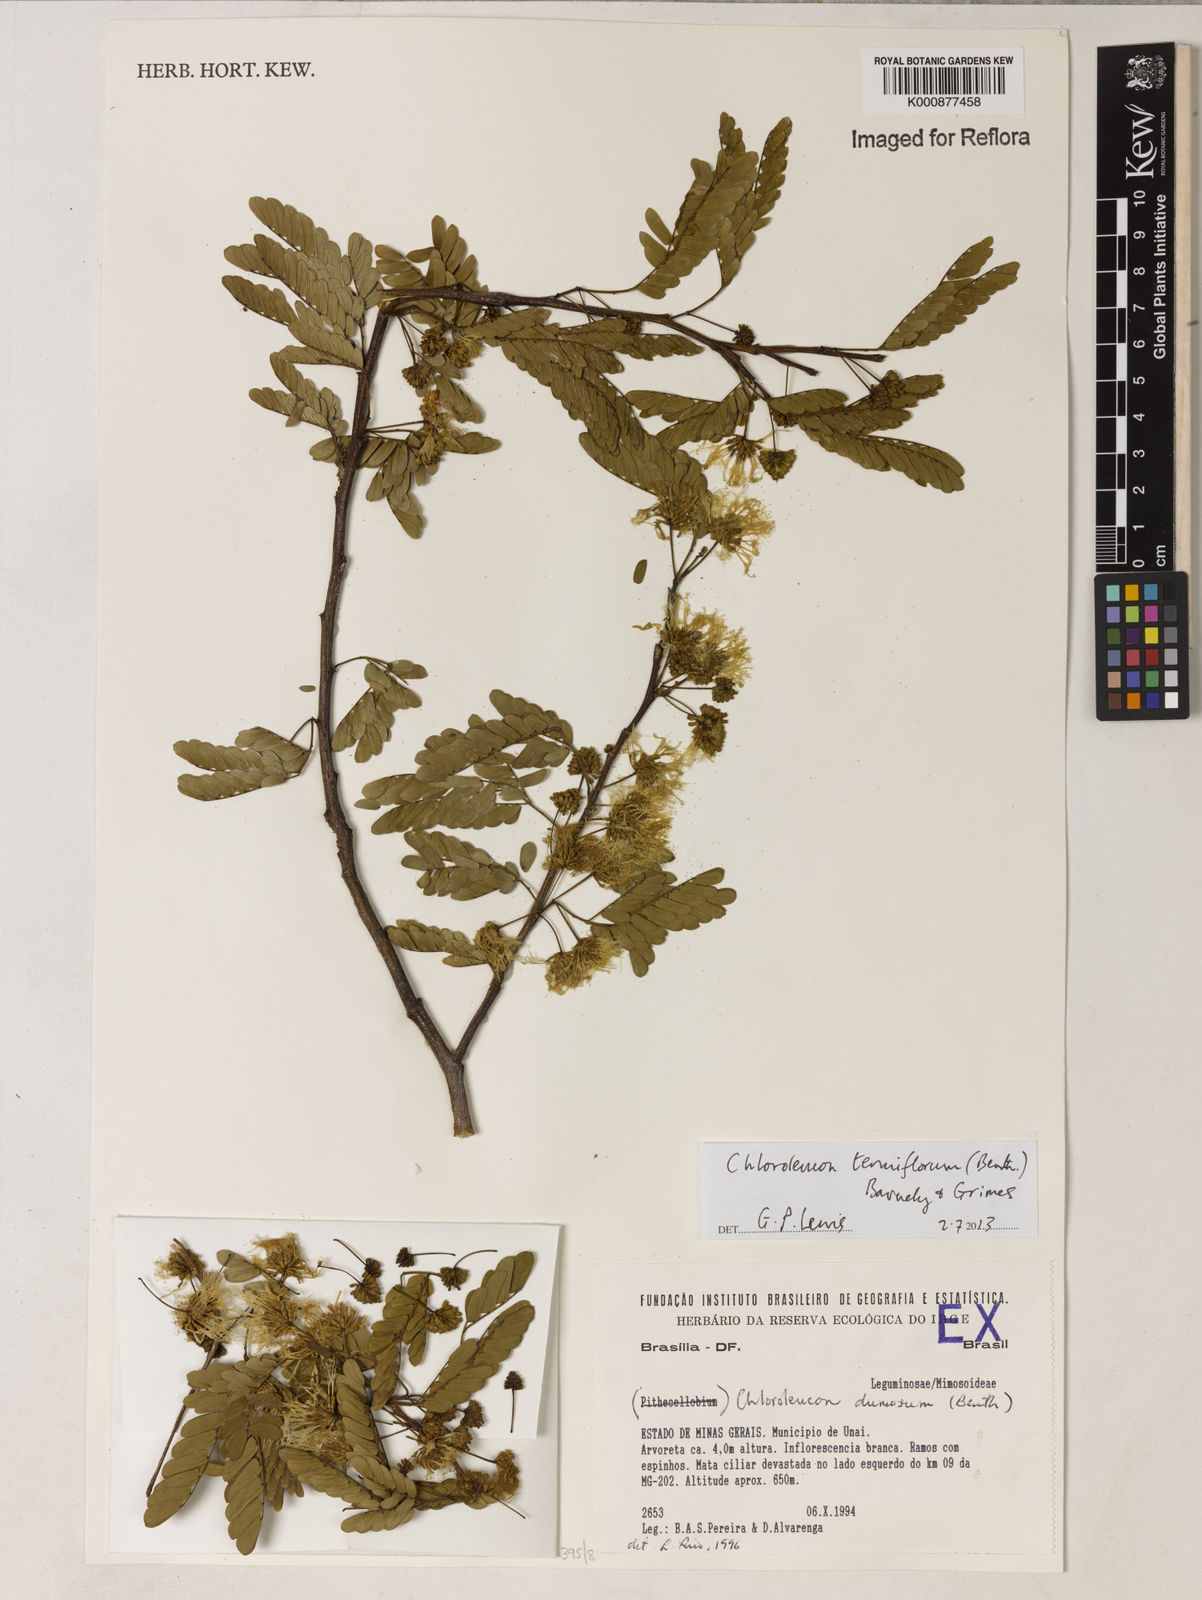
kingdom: Plantae
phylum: Tracheophyta
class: Magnoliopsida
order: Fabales
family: Fabaceae
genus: Chloroleucon
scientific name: Chloroleucon tenuiflorum
